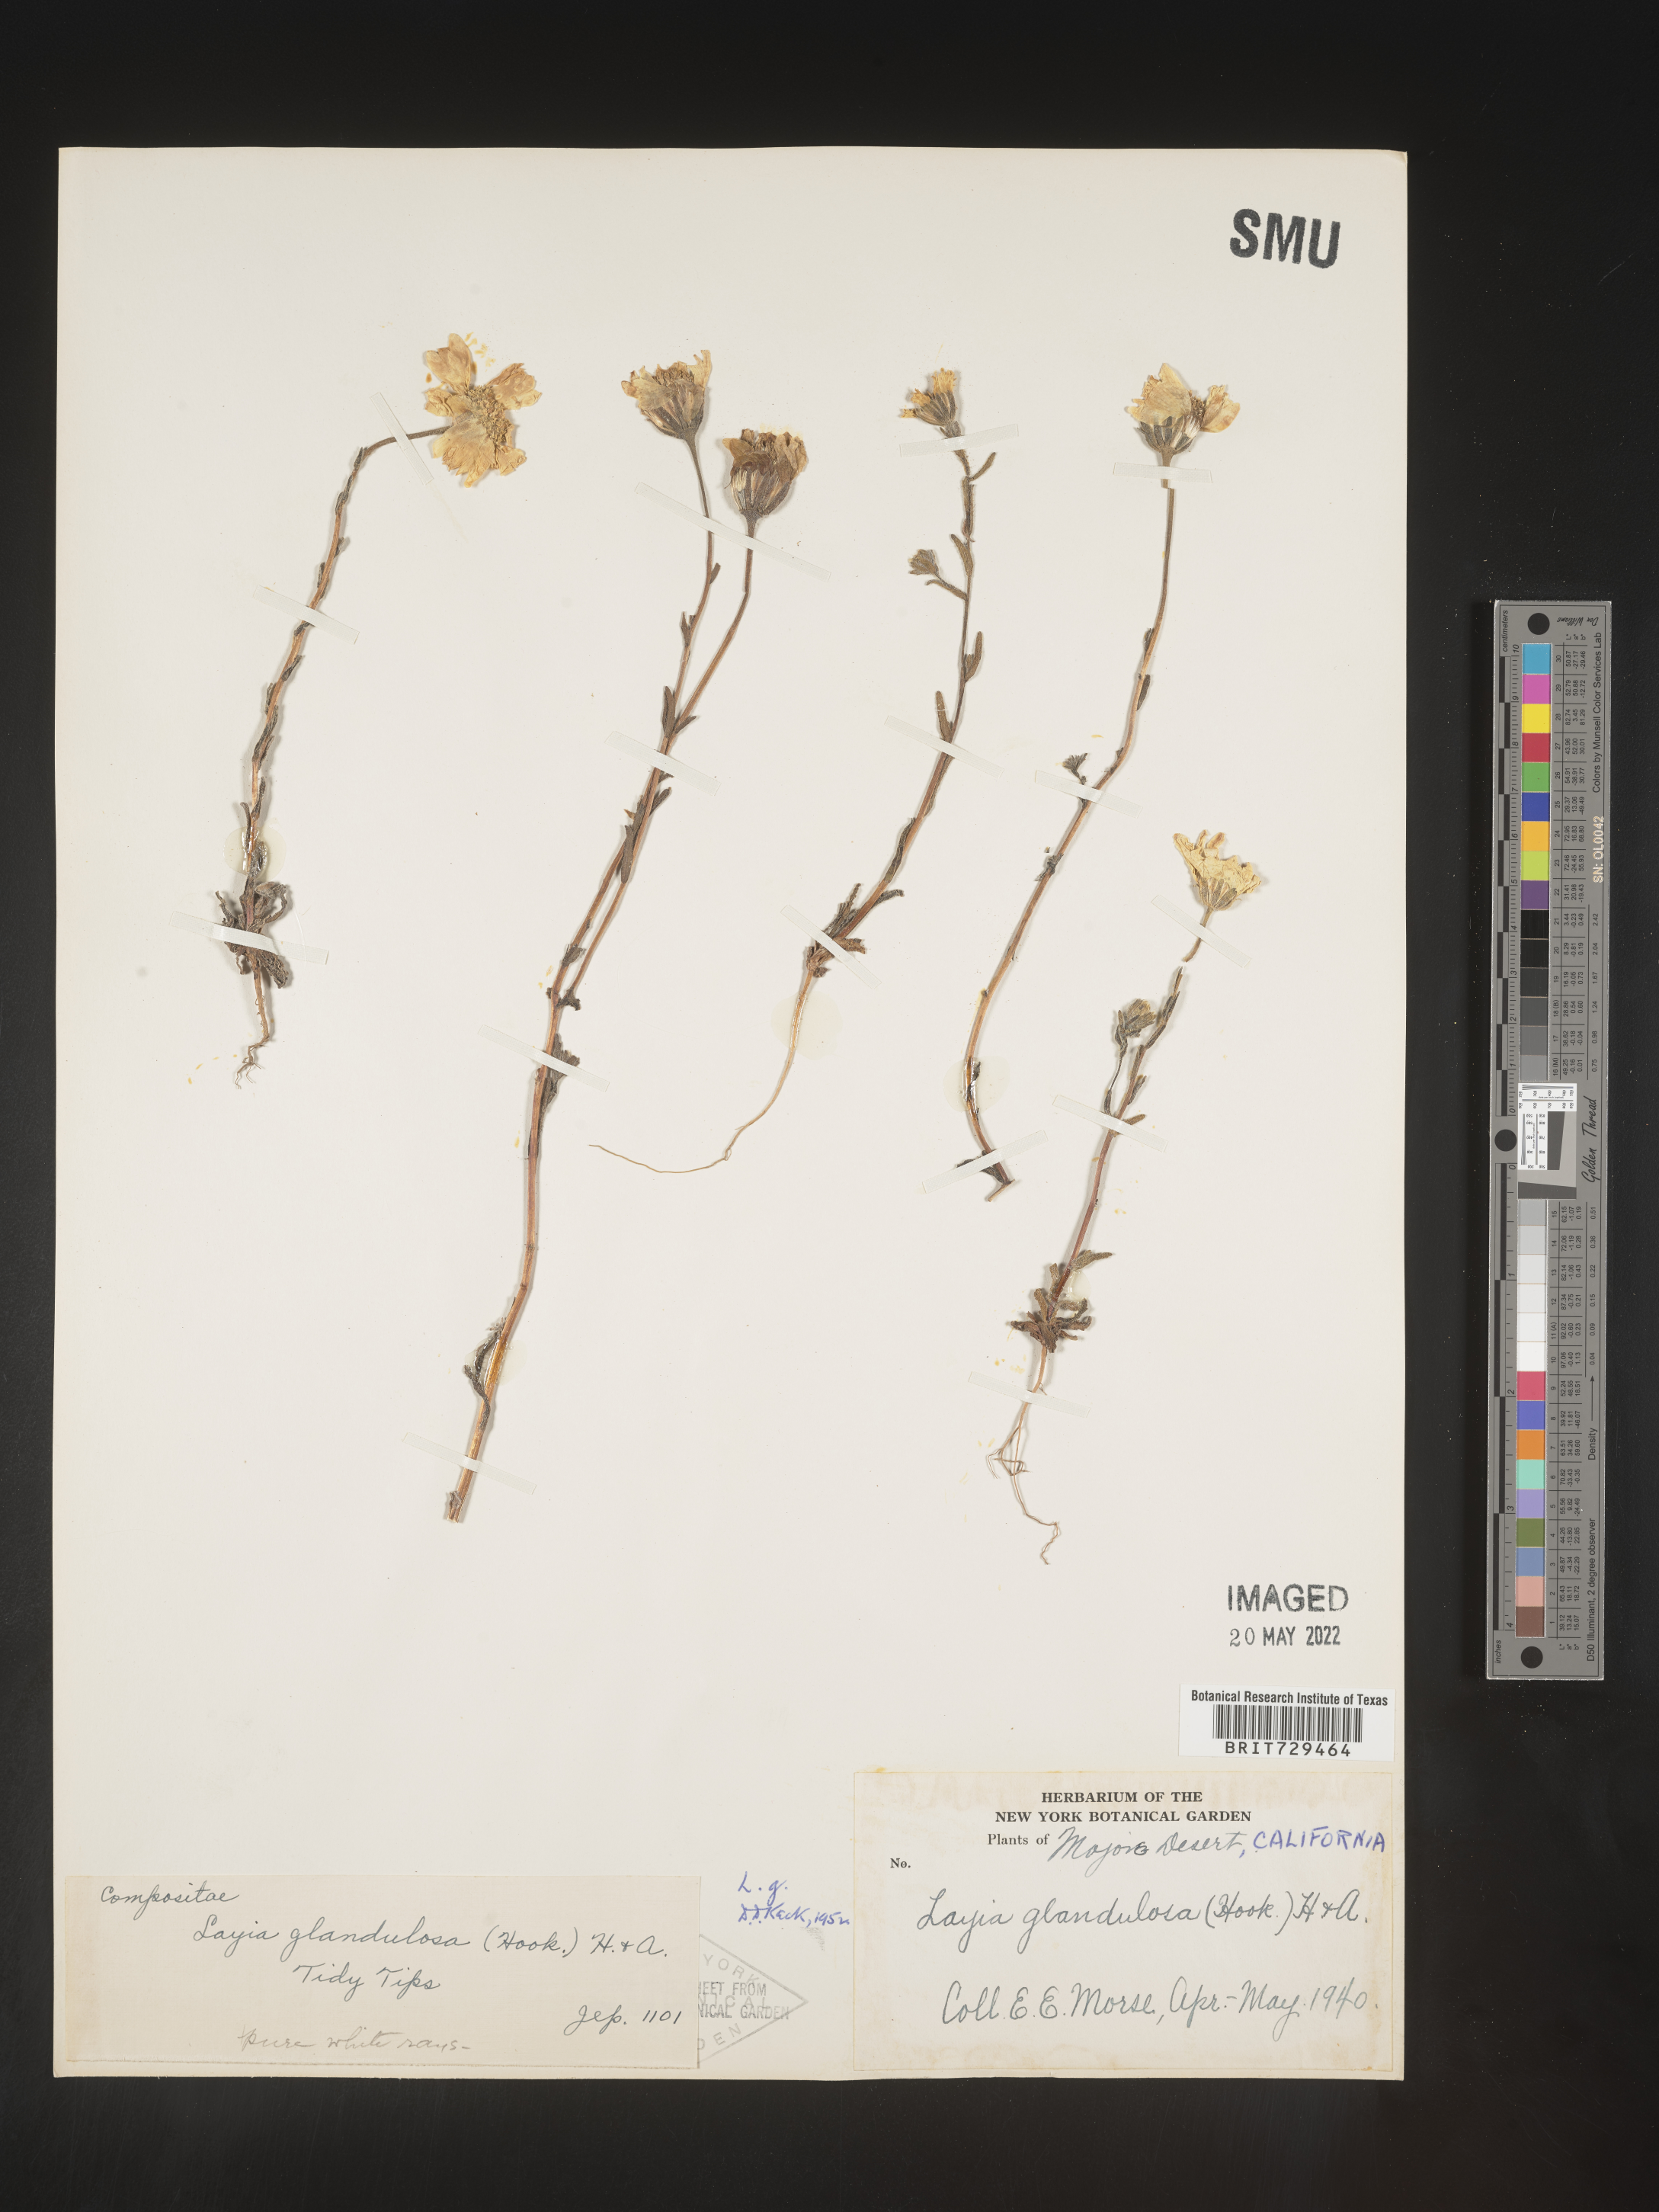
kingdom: Plantae
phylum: Tracheophyta
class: Magnoliopsida
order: Asterales
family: Asteraceae
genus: Layia
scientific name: Layia
